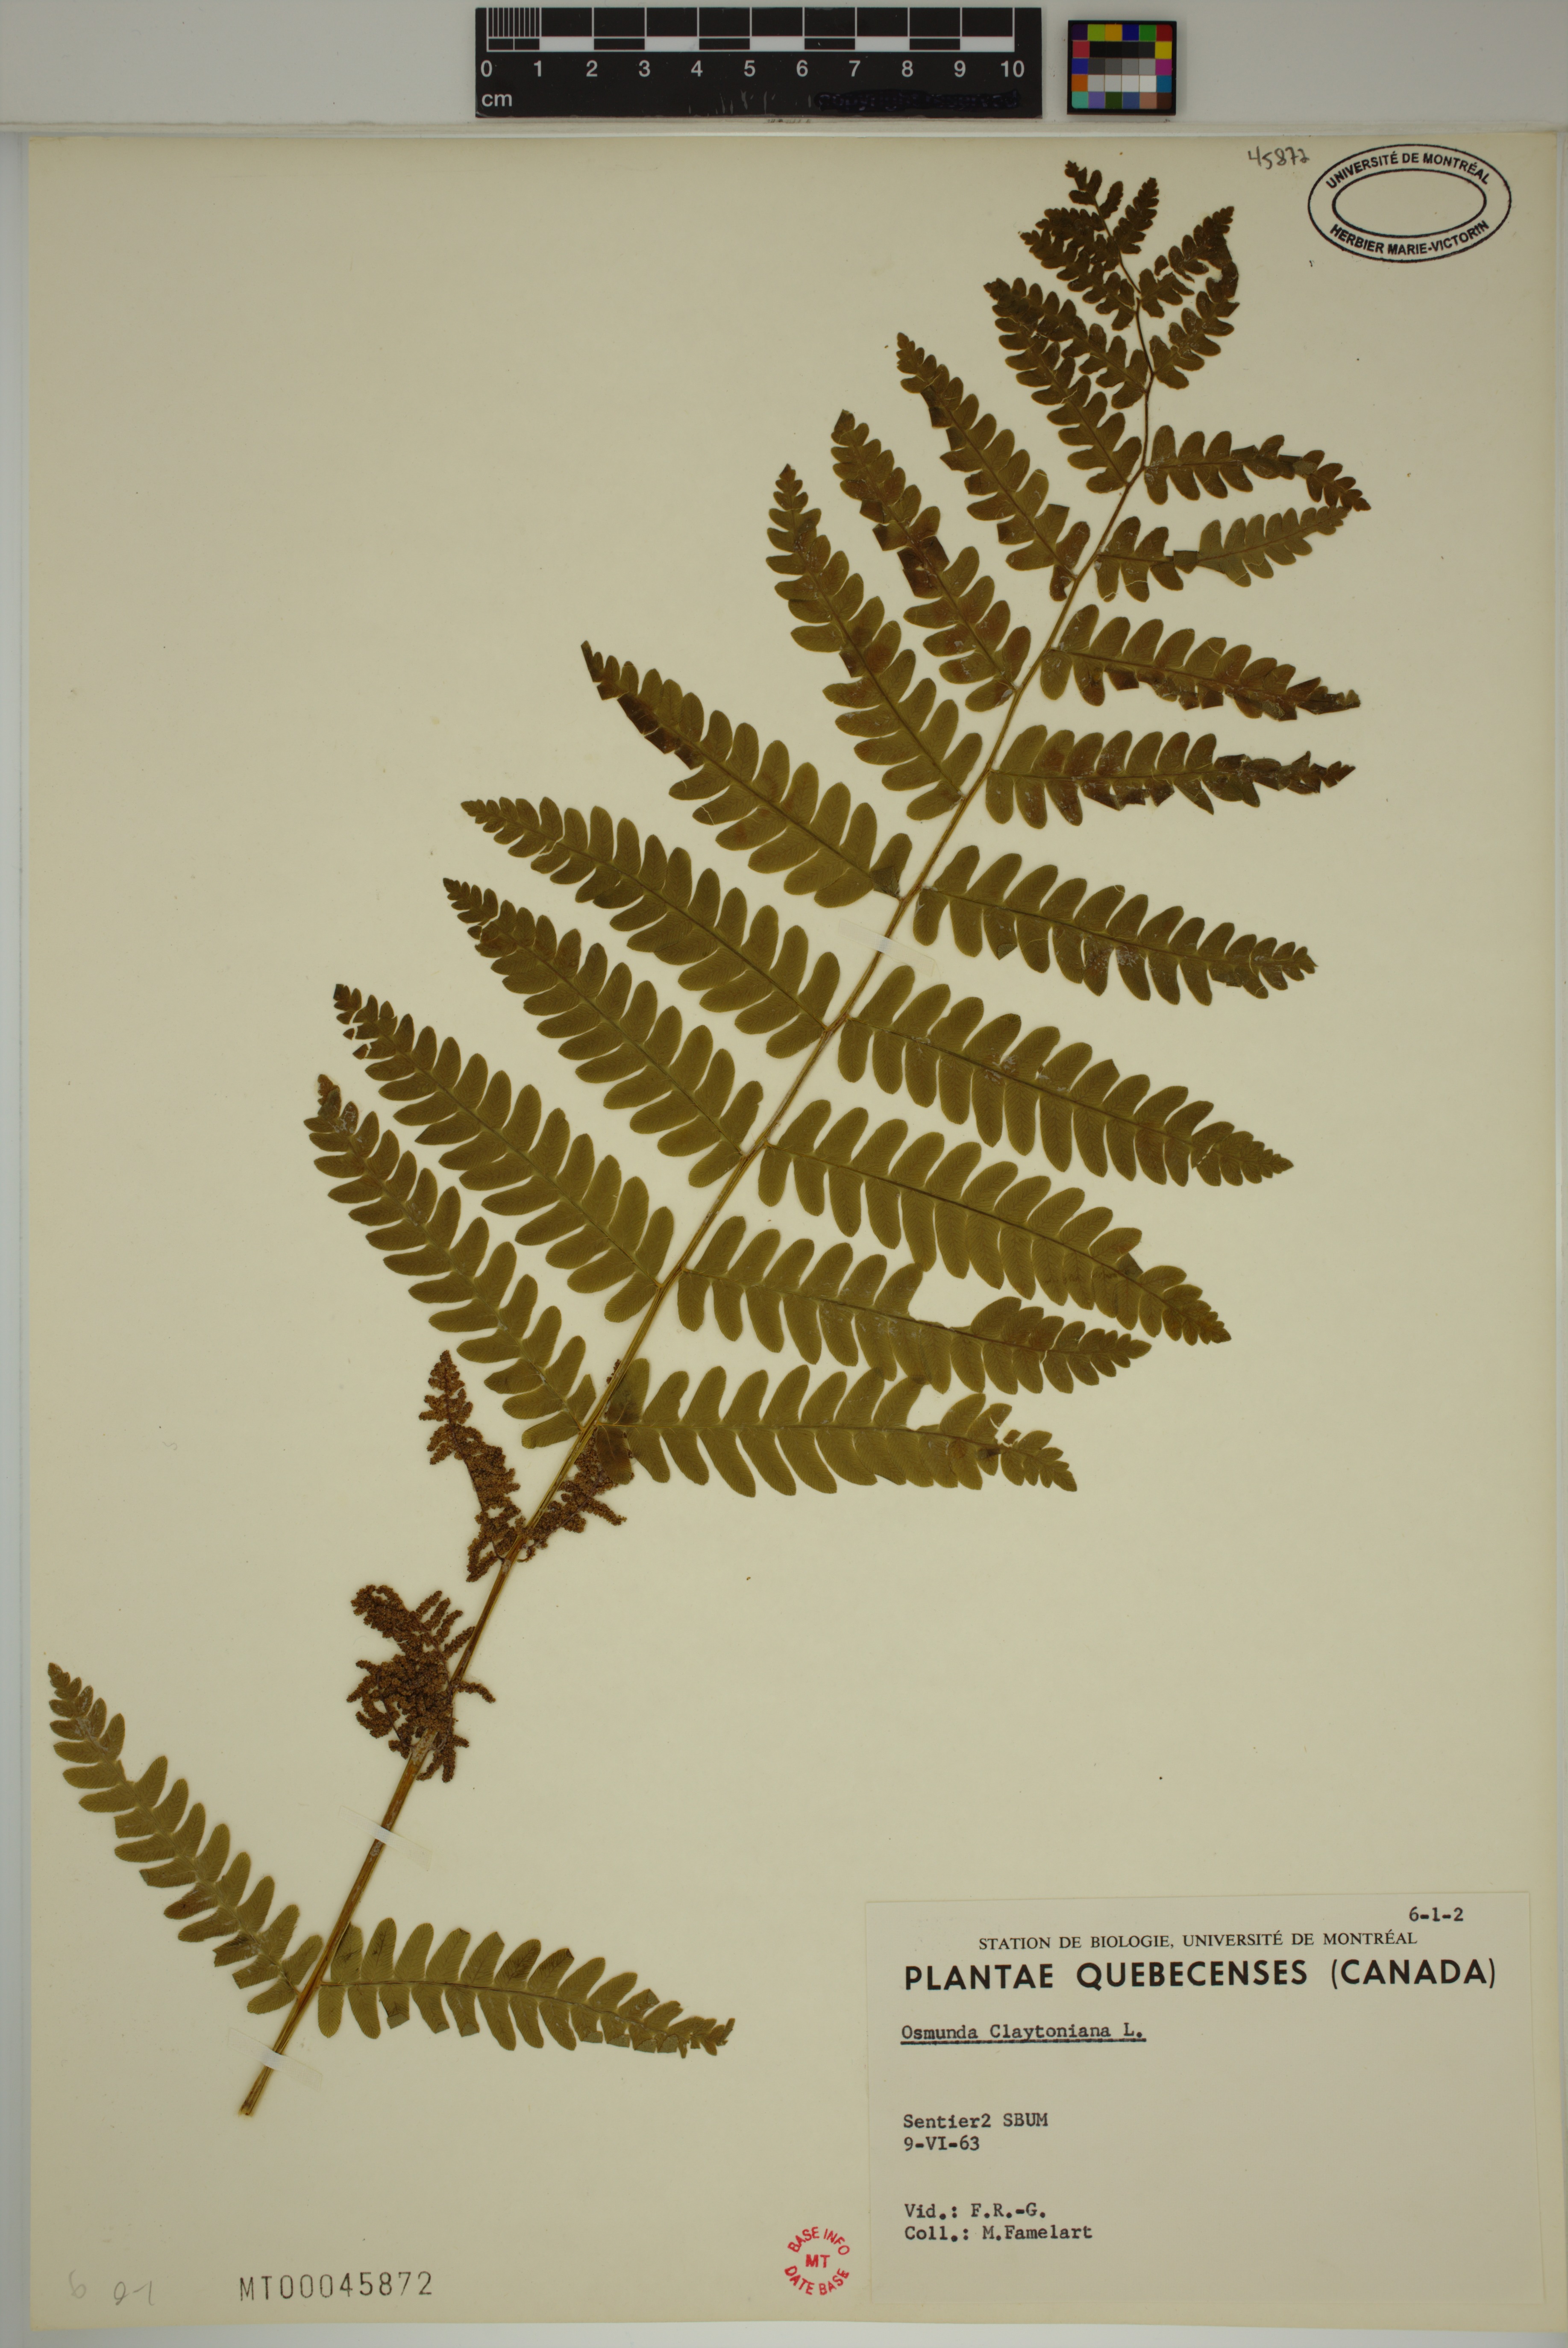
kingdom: Plantae
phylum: Tracheophyta
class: Polypodiopsida
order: Osmundales
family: Osmundaceae
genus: Claytosmunda
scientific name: Claytosmunda claytoniana
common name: Clayton's fern
